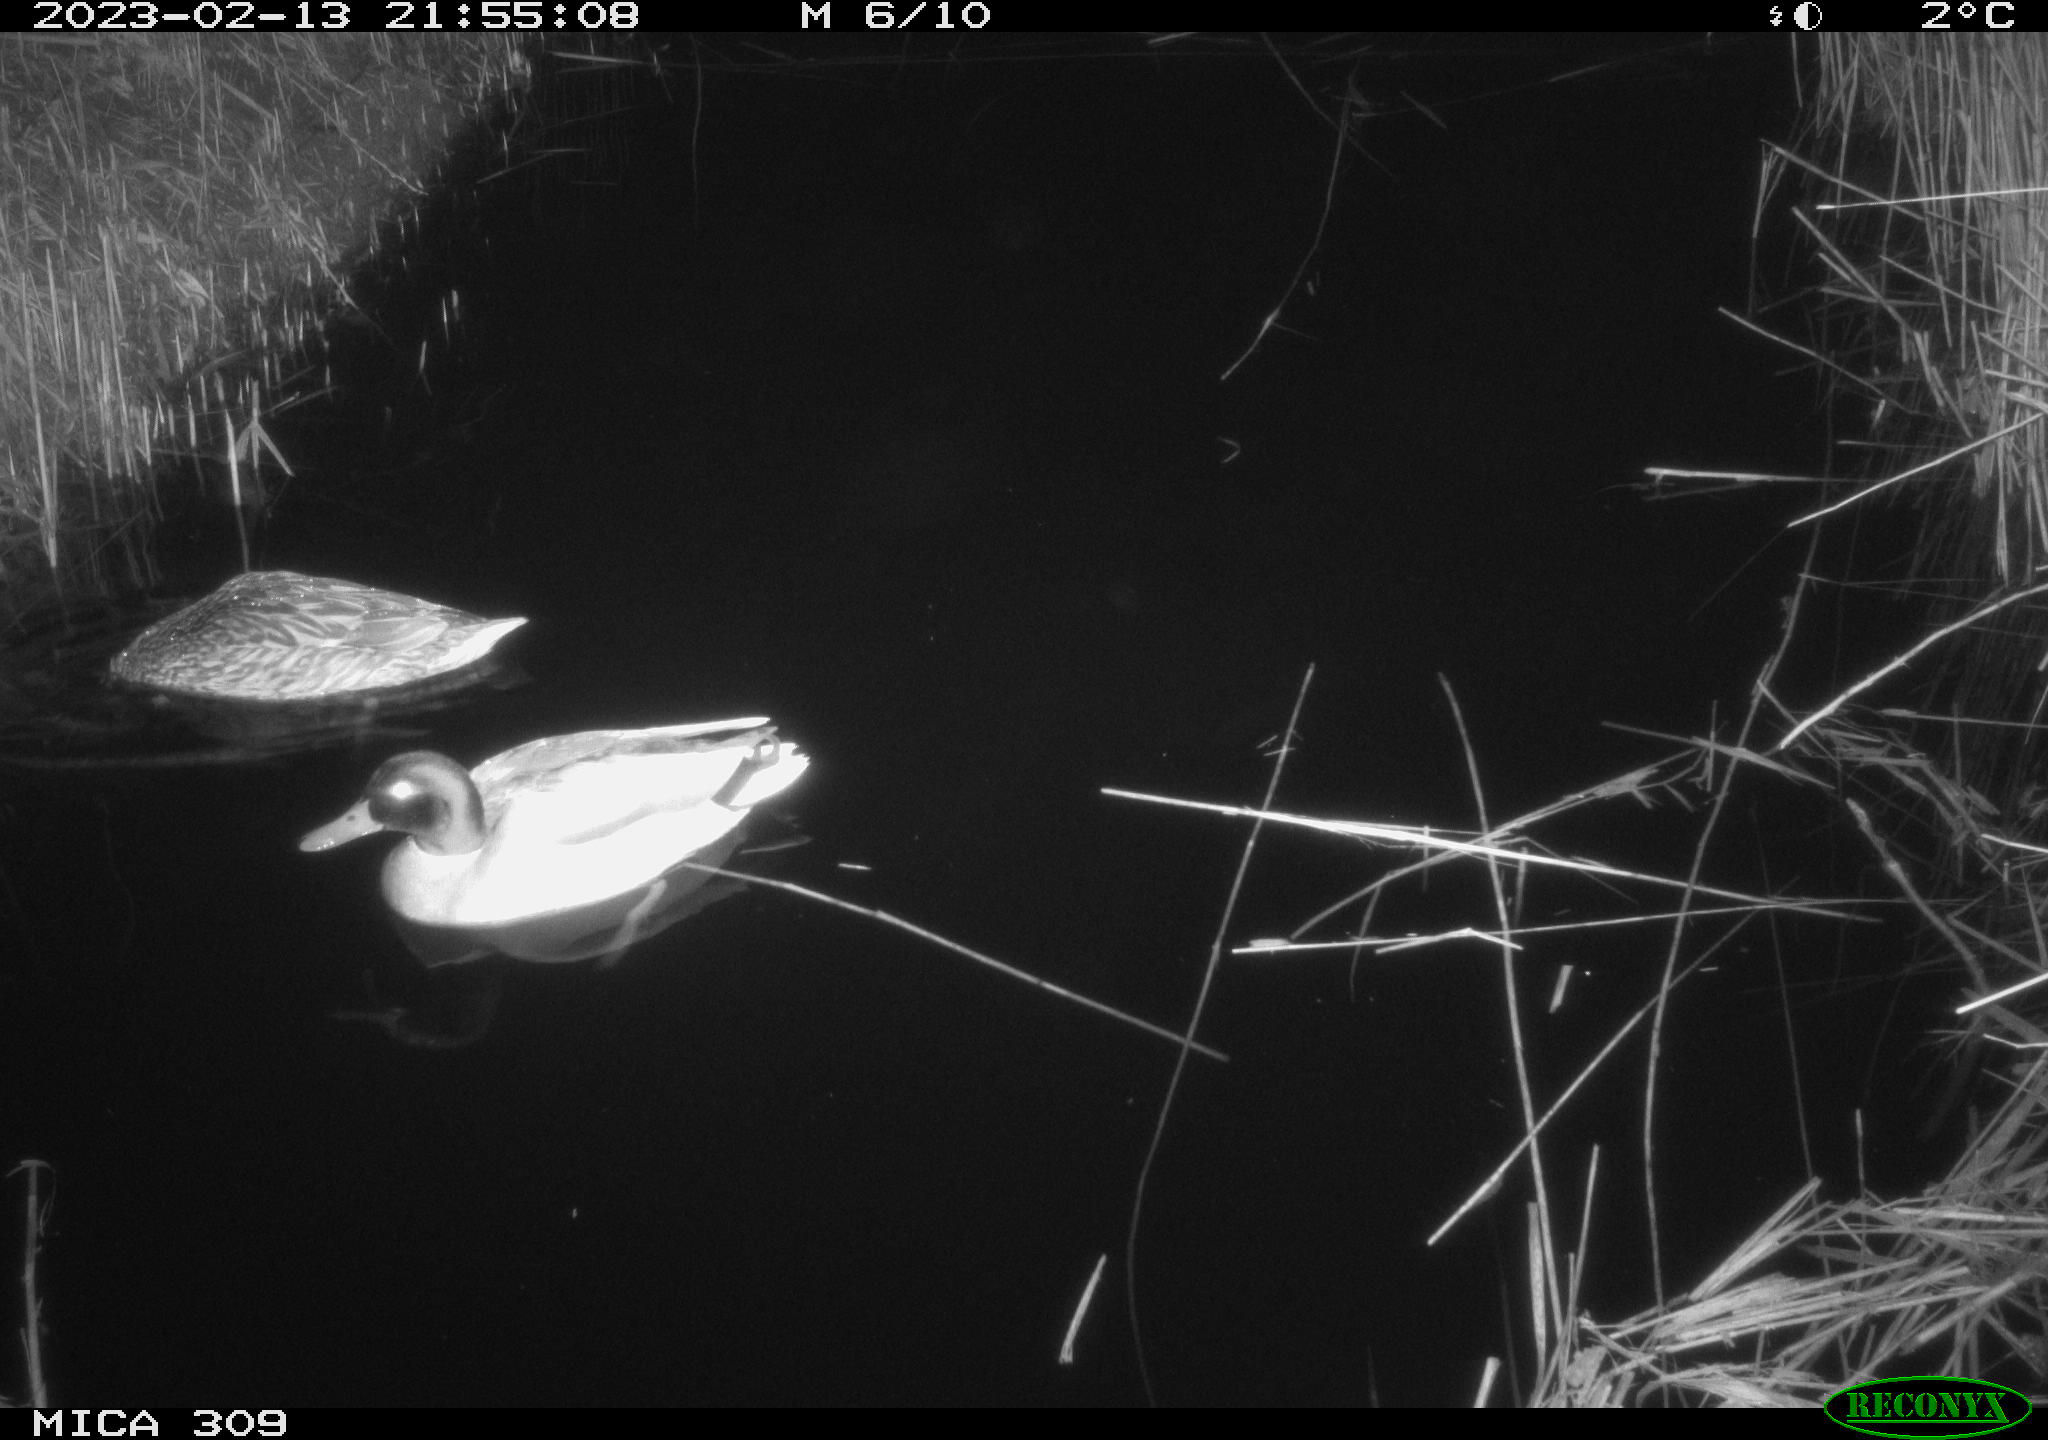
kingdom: Animalia
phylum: Chordata
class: Aves
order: Anseriformes
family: Anatidae
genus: Anas
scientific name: Anas
